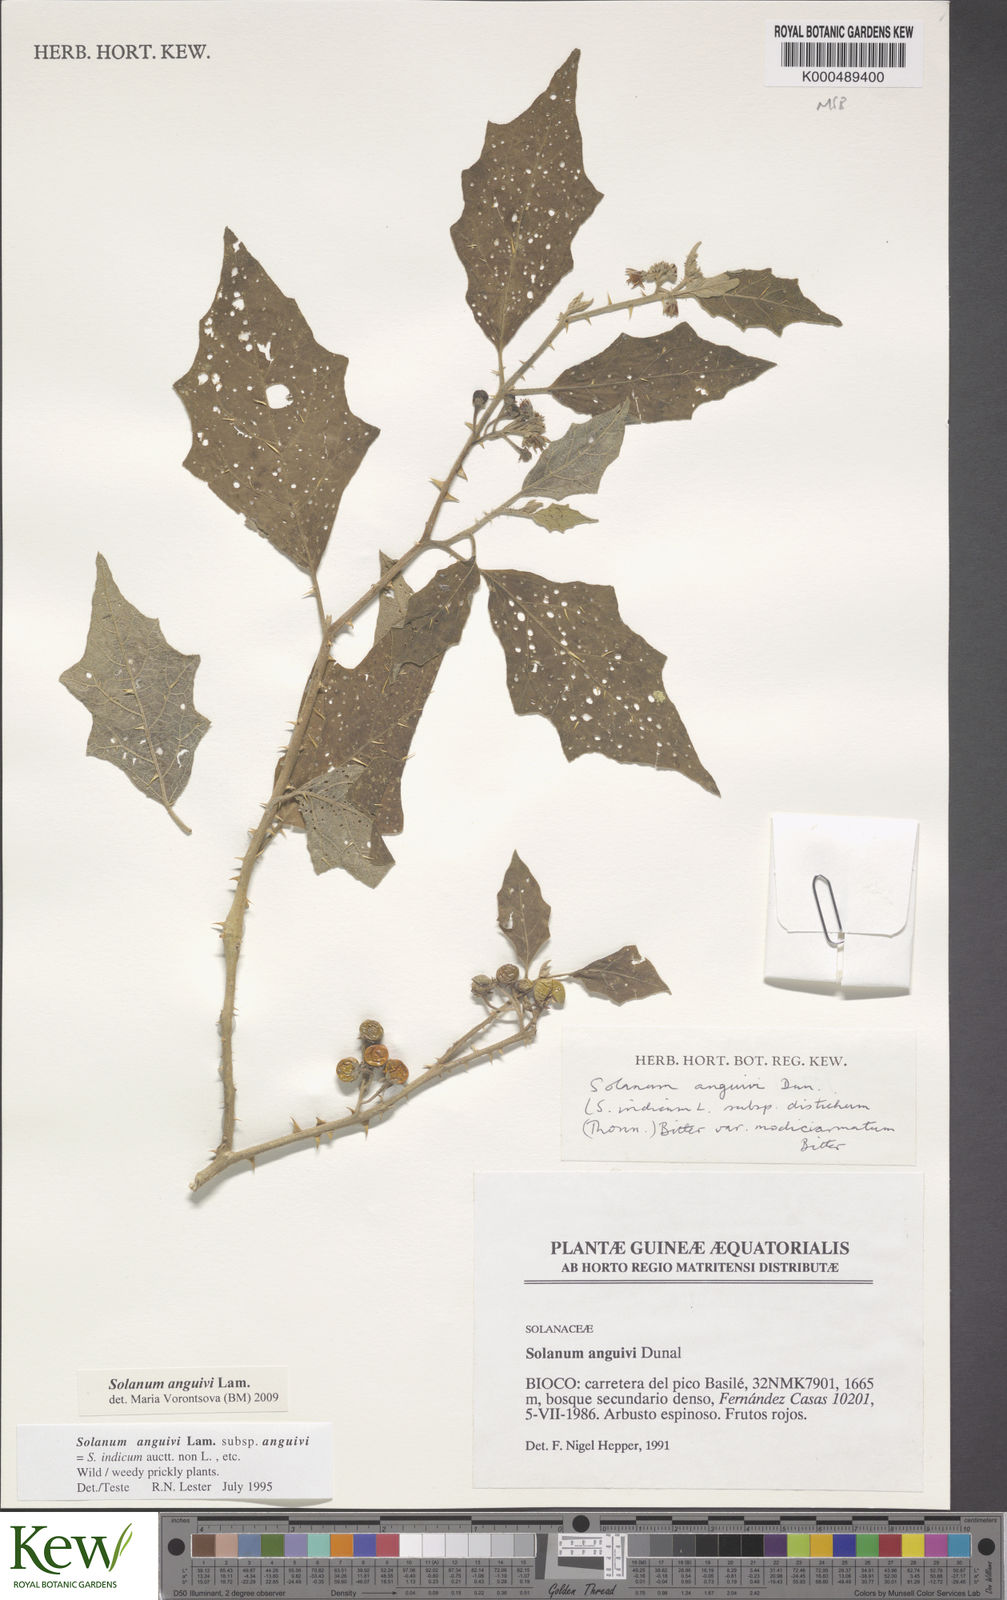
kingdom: Plantae
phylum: Tracheophyta
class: Magnoliopsida
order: Solanales
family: Solanaceae
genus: Solanum
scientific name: Solanum anguivi
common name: Forest bitterberry
